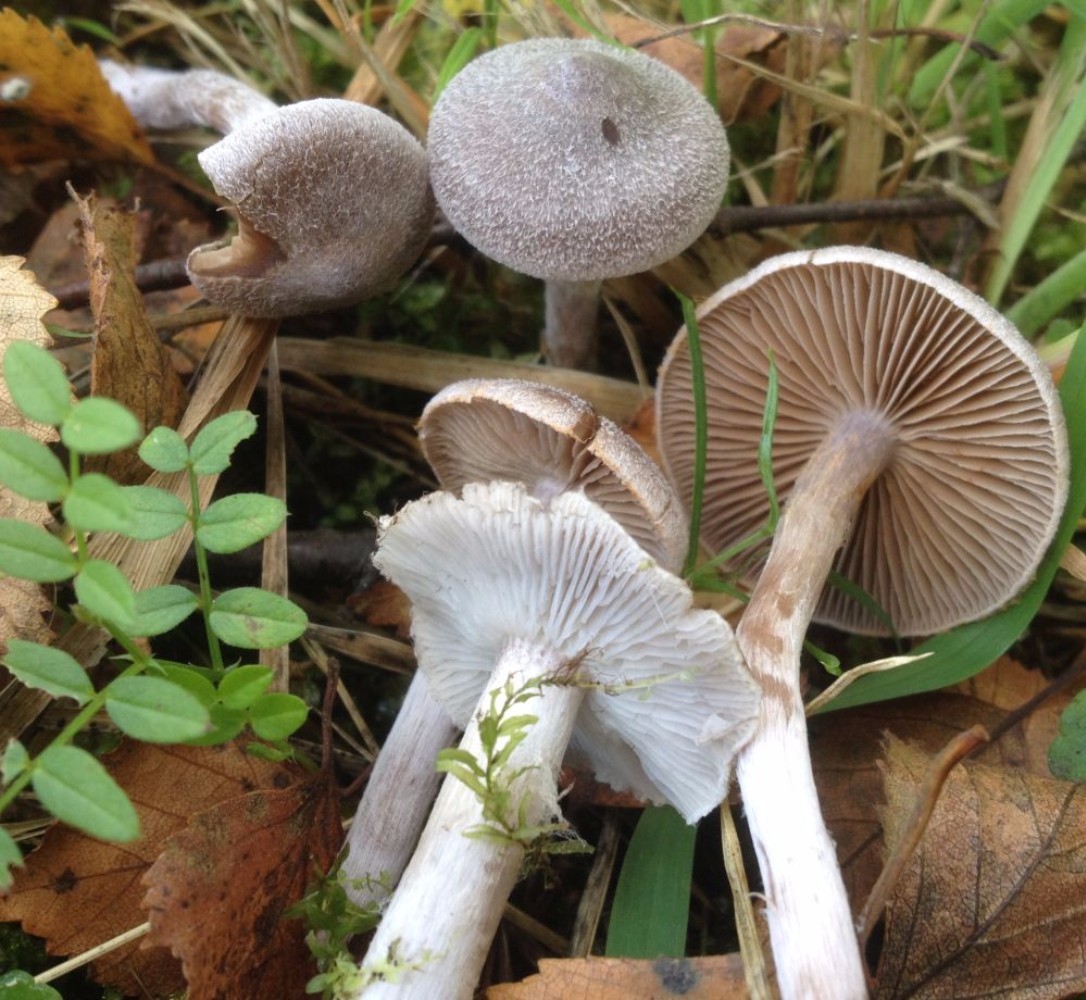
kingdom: Fungi
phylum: Basidiomycota
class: Agaricomycetes
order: Agaricales
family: Cortinariaceae
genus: Cortinarius
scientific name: Cortinarius hemitrichus
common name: hvidfnugget slørhat
